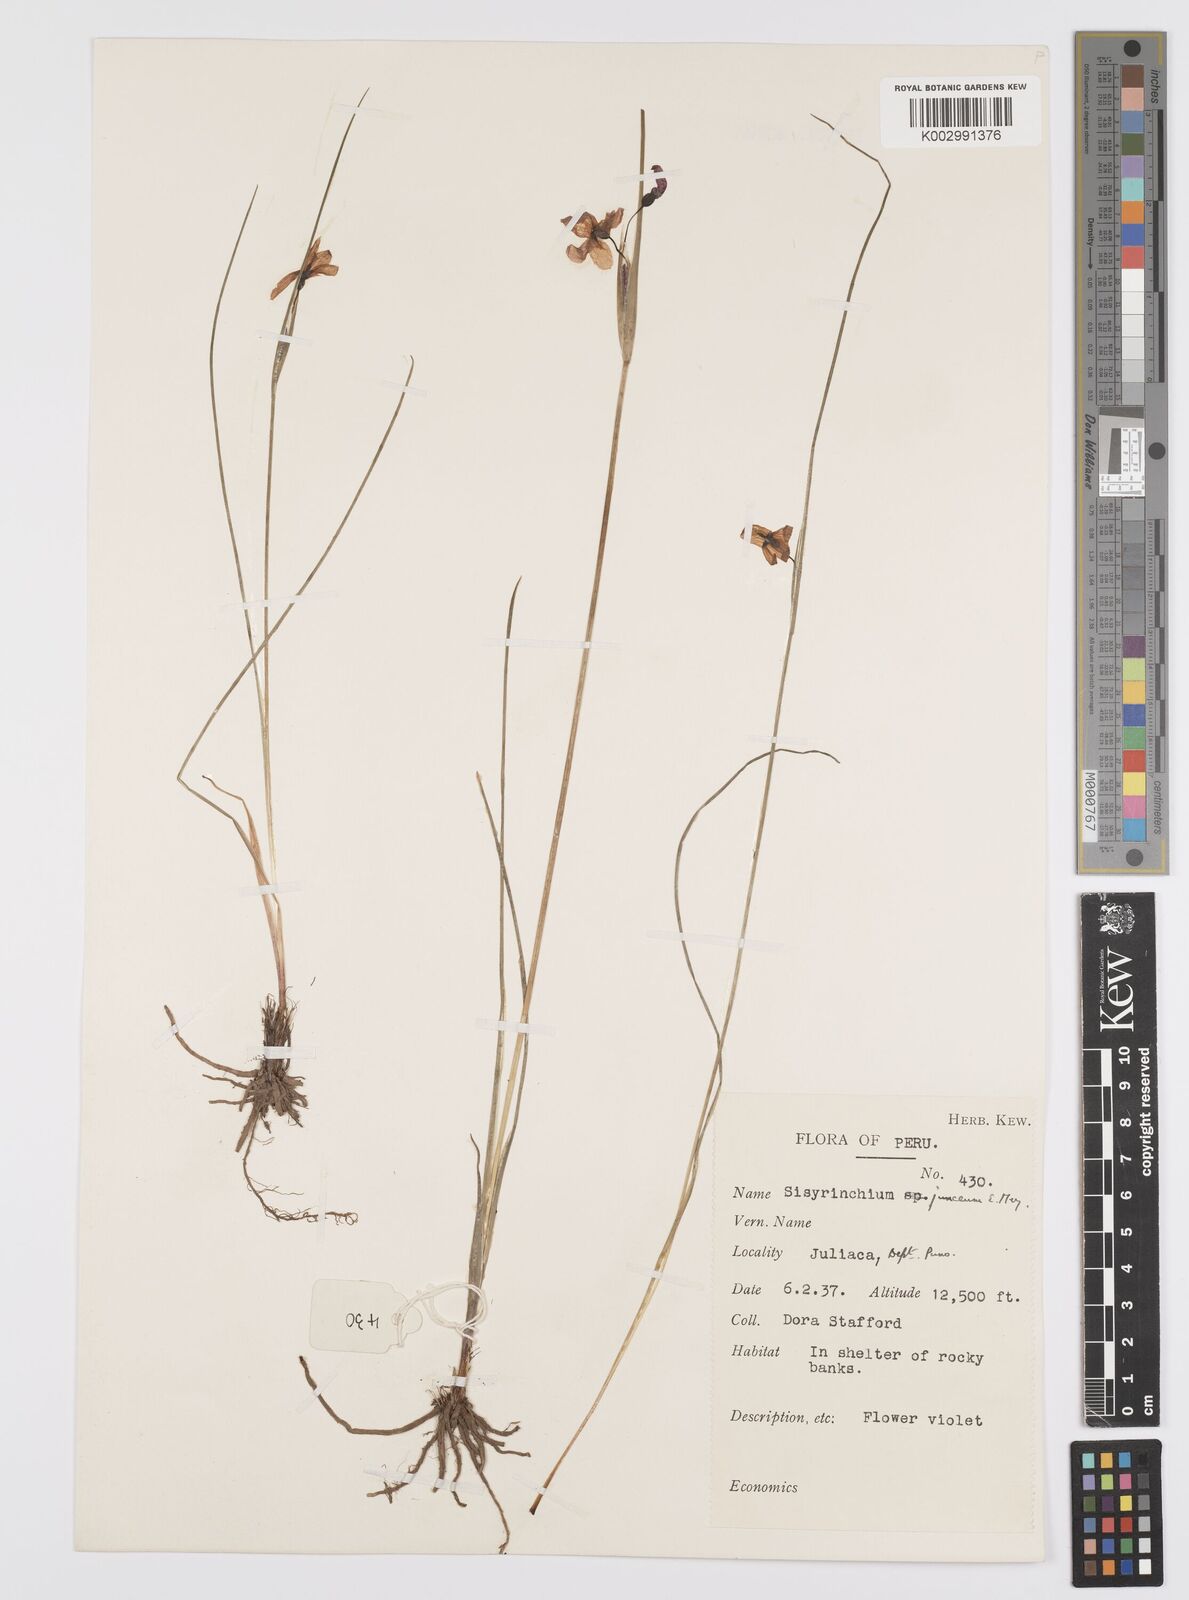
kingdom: Plantae
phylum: Tracheophyta
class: Liliopsida
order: Asparagales
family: Iridaceae
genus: Olsynium
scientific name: Olsynium
